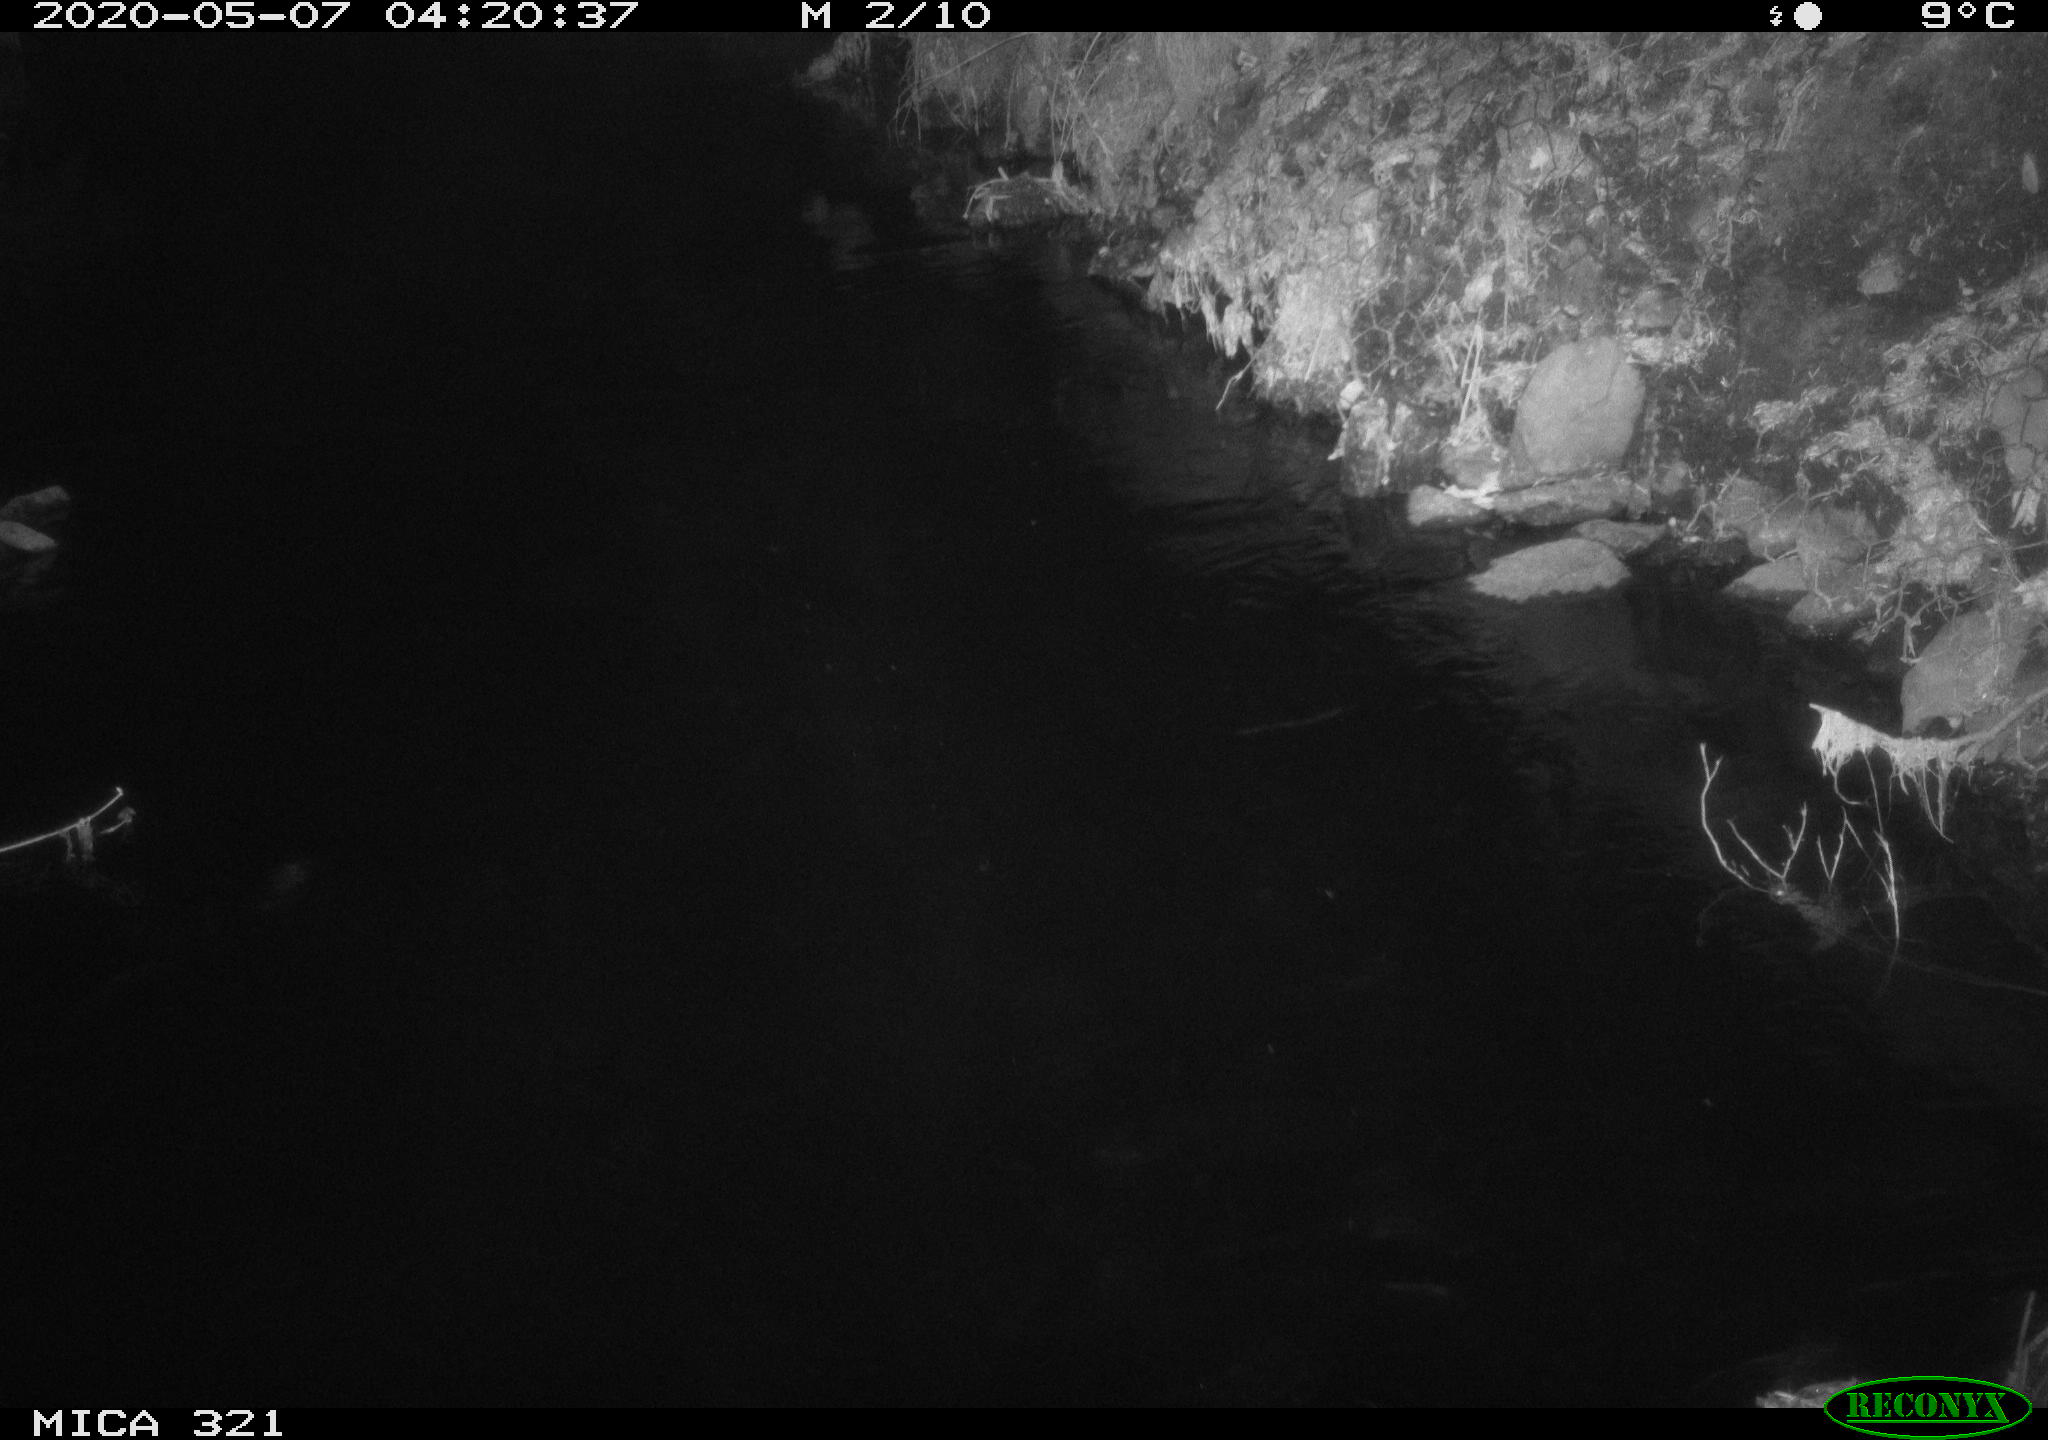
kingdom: Animalia
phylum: Chordata
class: Aves
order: Anseriformes
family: Anatidae
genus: Anas
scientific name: Anas platyrhynchos
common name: Mallard
